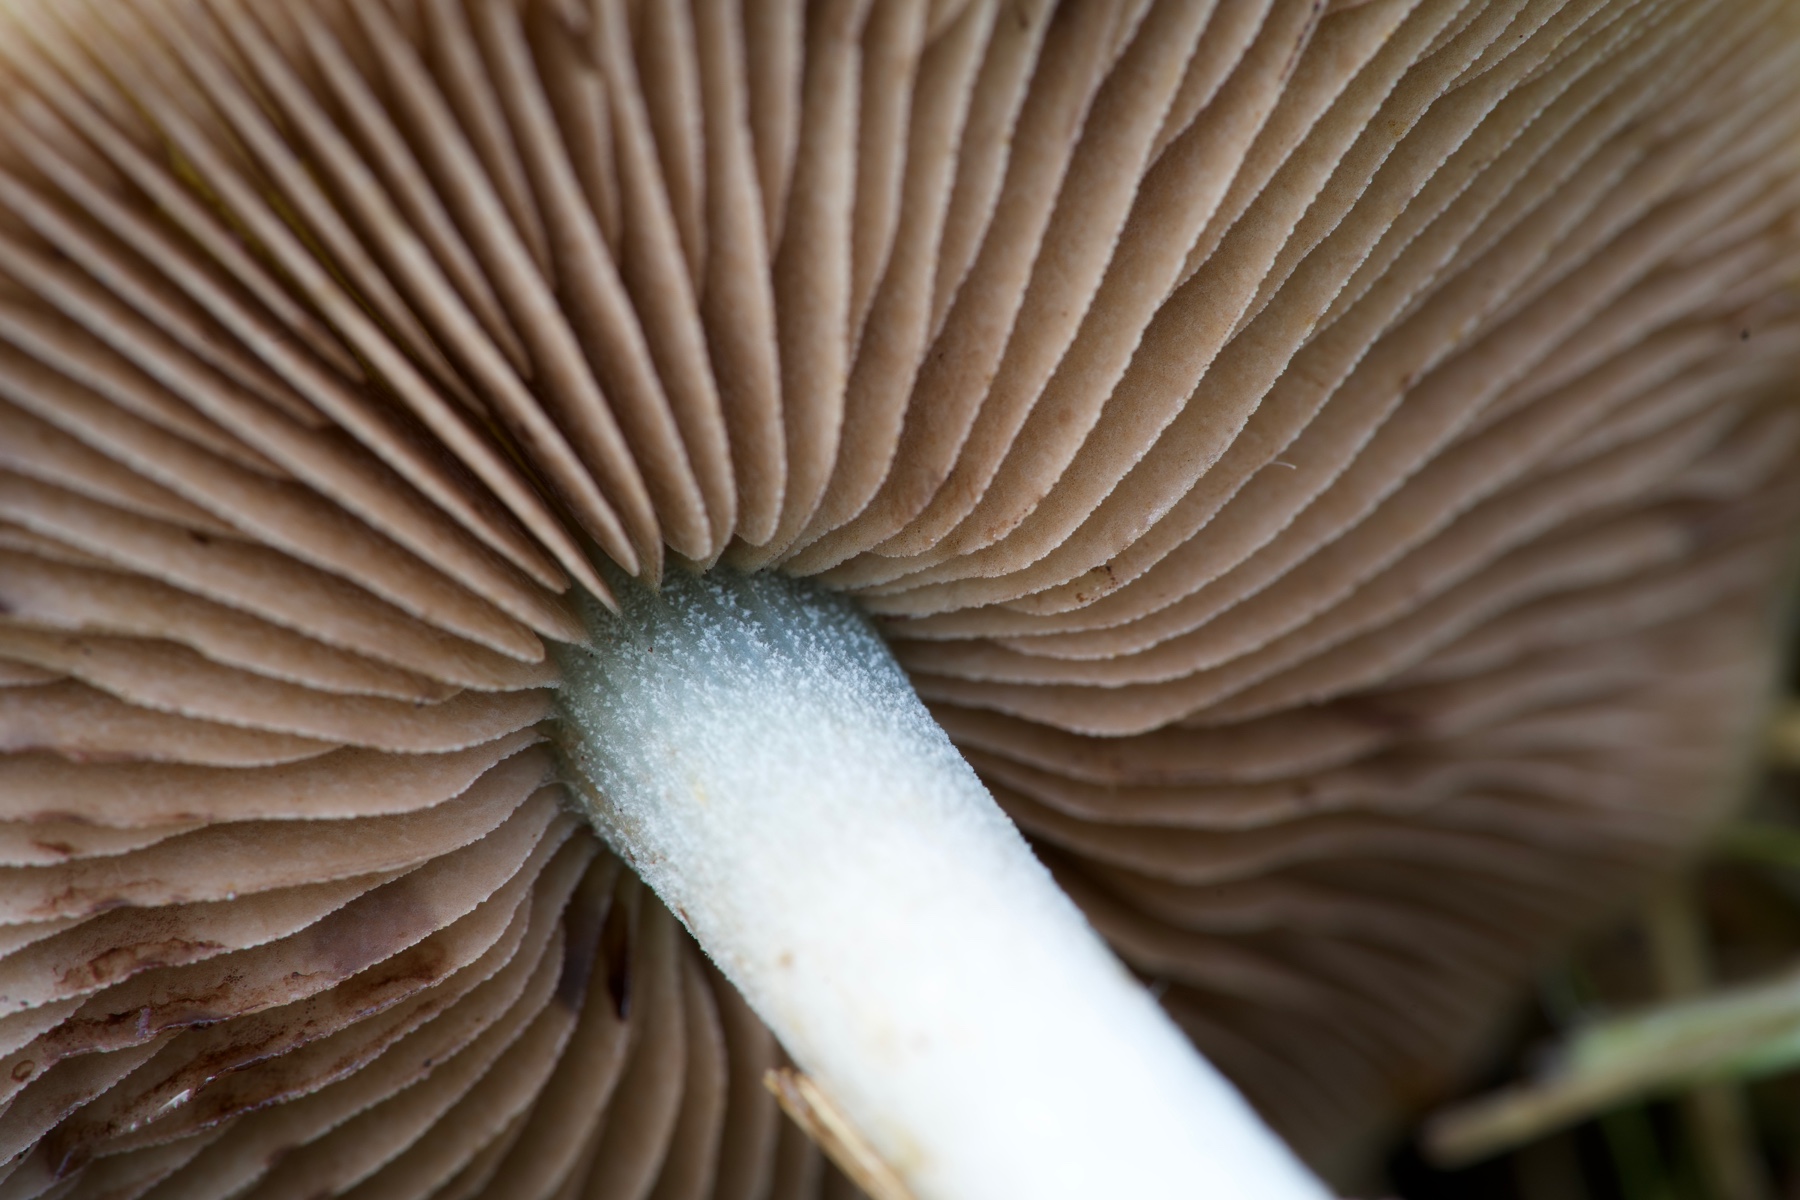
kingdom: Fungi
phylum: Basidiomycota
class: Agaricomycetes
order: Agaricales
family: Strophariaceae
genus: Stropharia
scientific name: Stropharia cyanea
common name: blågrøn bredblad
